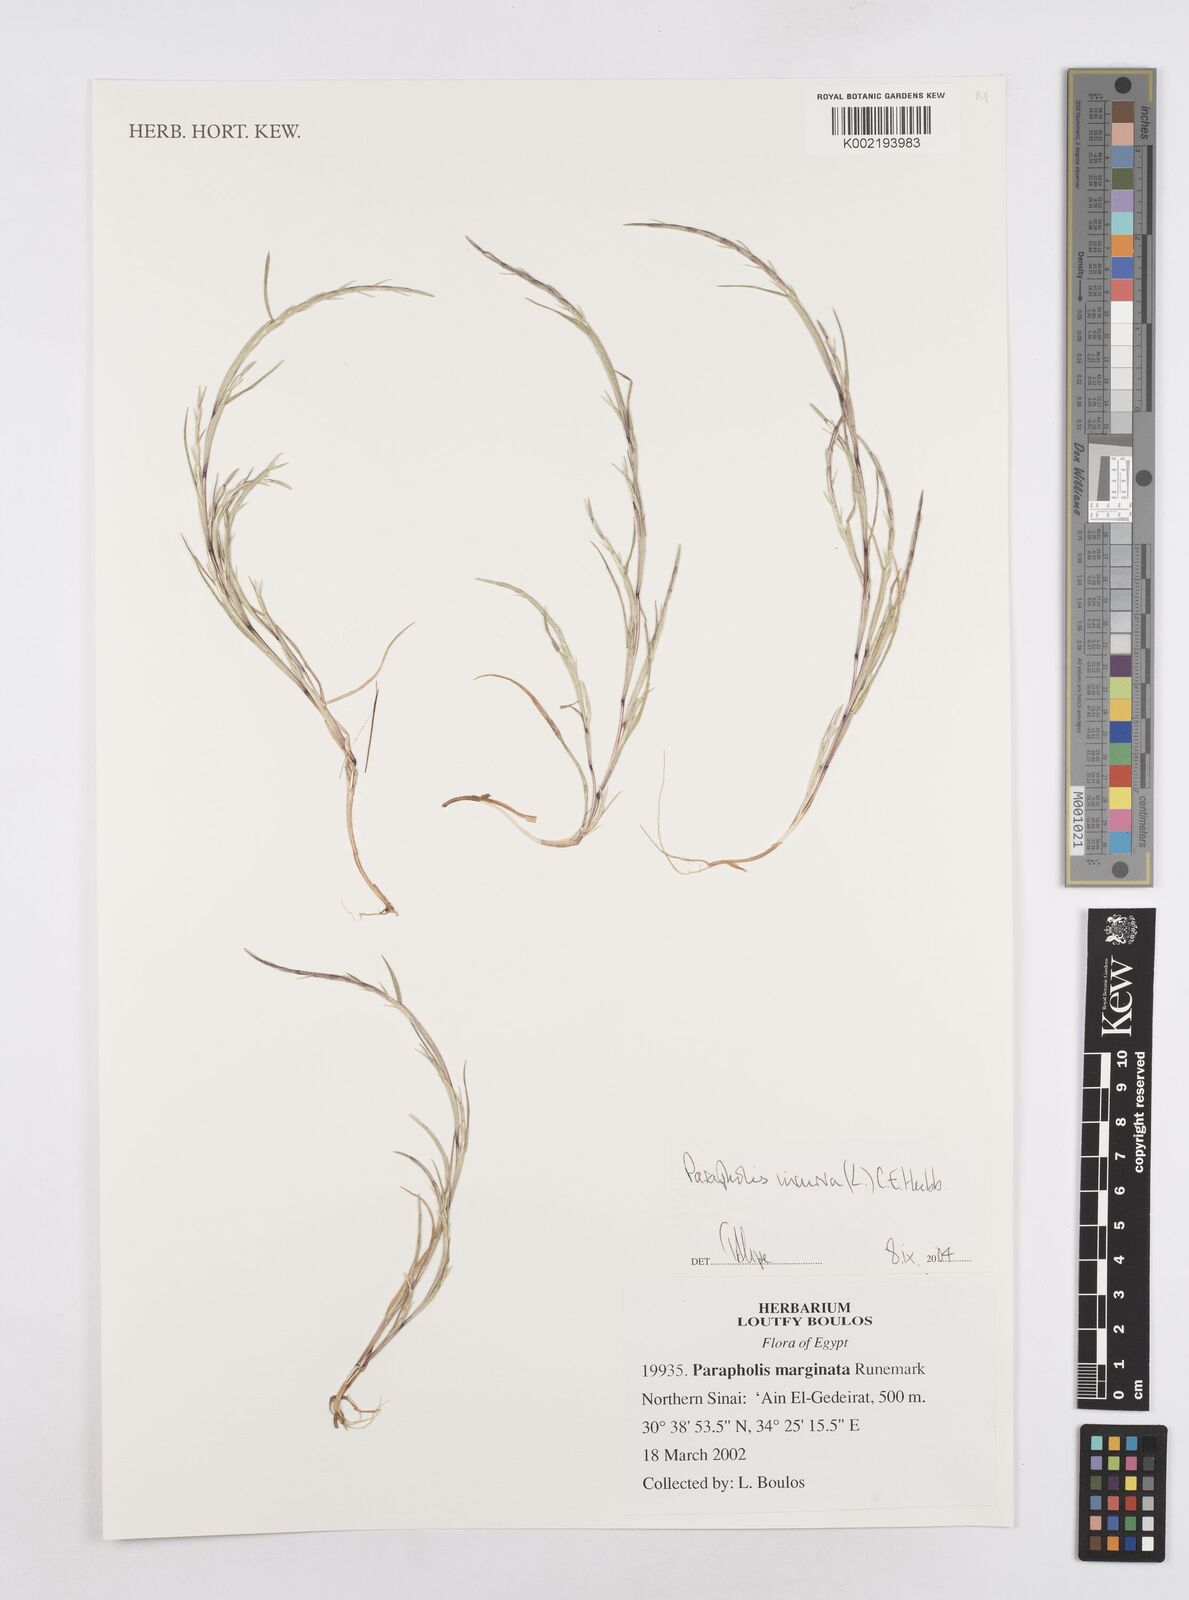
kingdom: Plantae
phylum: Tracheophyta
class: Liliopsida
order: Poales
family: Poaceae
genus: Parapholis
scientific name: Parapholis incurva
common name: Curved sicklegrass
